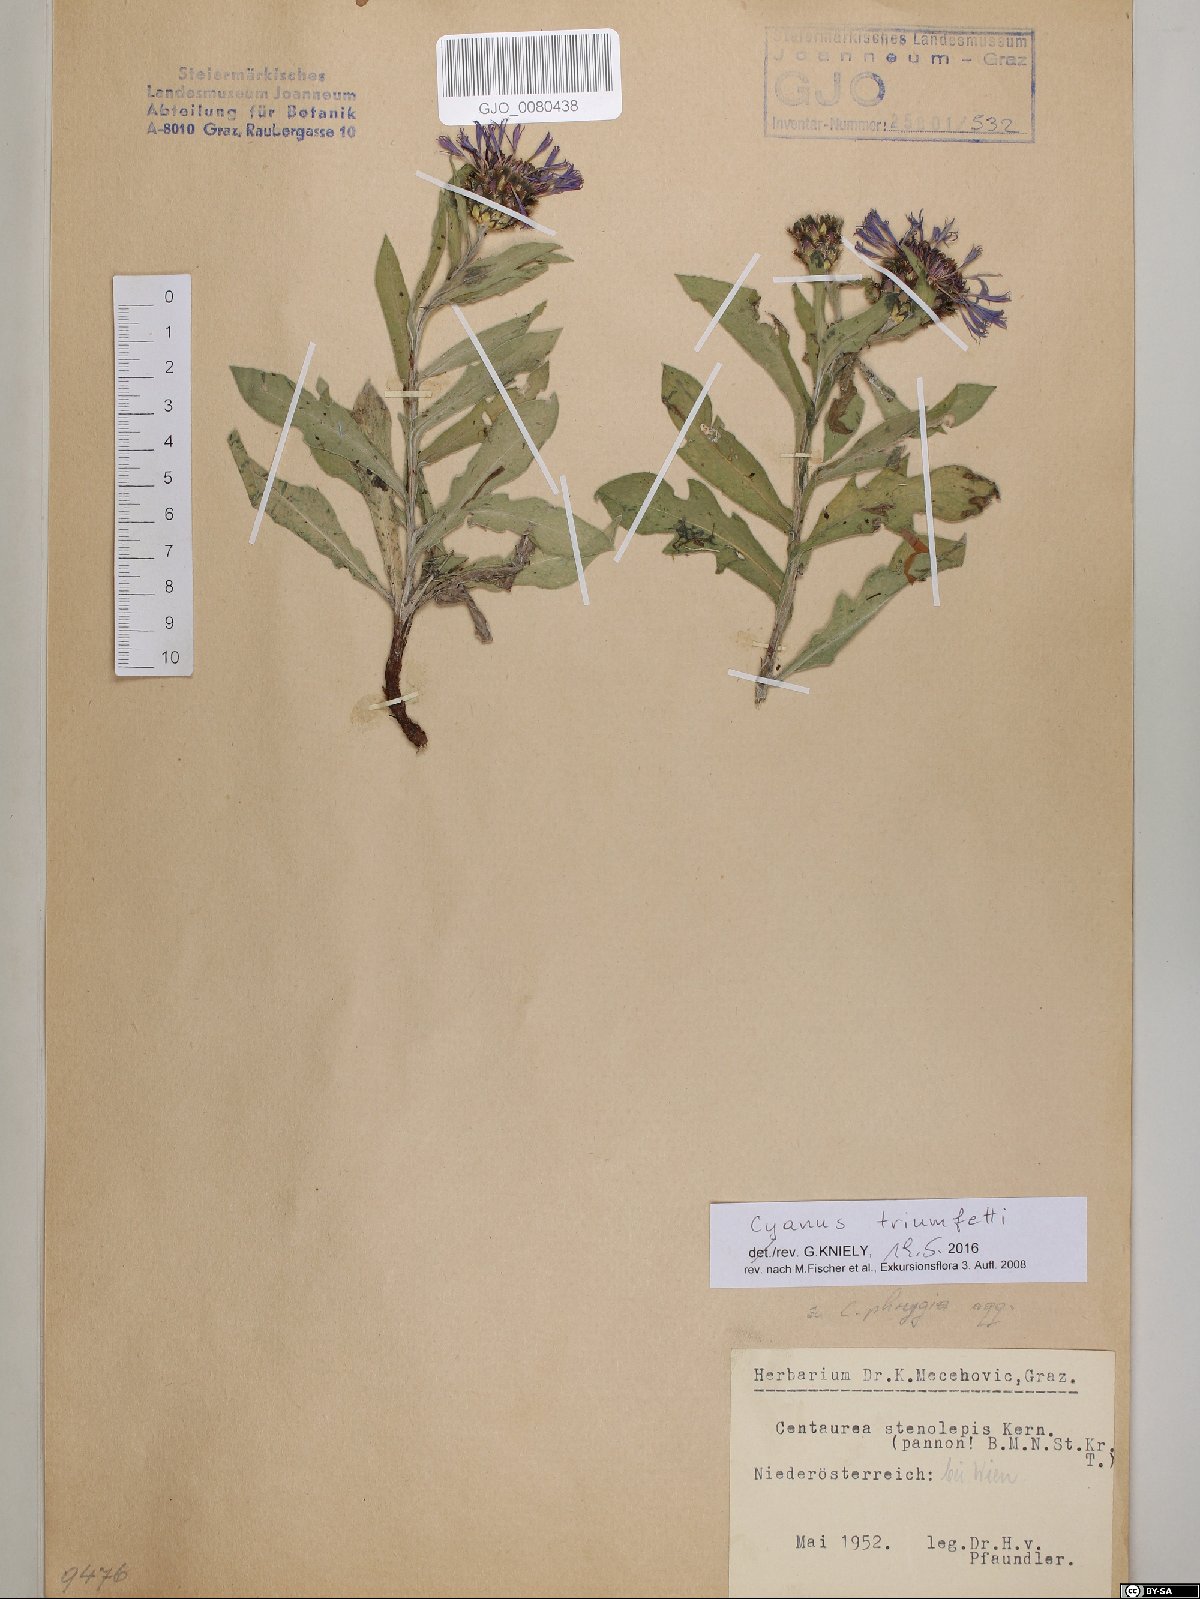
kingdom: Plantae
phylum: Tracheophyta
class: Magnoliopsida
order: Asterales
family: Asteraceae
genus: Centaurea
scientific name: Centaurea triumfettii
